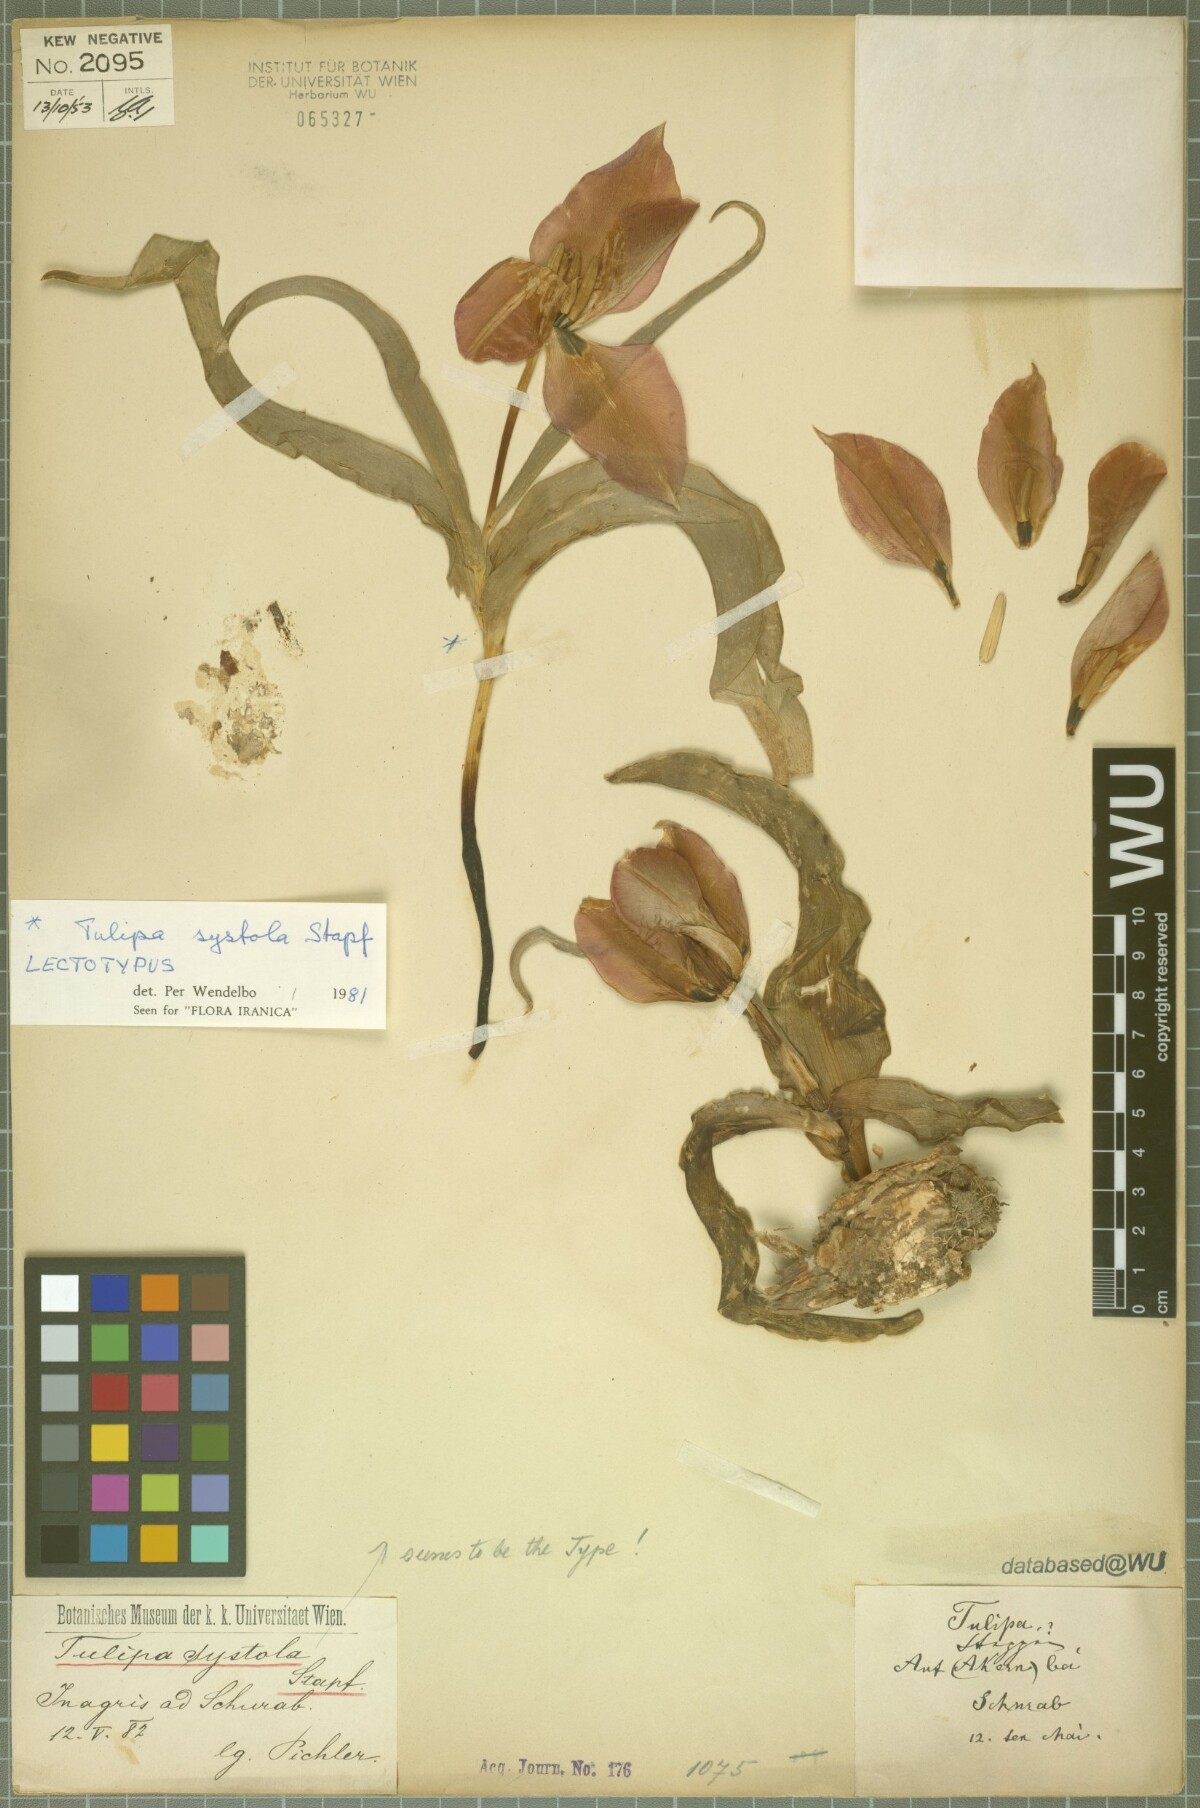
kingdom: Plantae
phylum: Tracheophyta
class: Liliopsida
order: Liliales
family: Liliaceae
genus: Tulipa
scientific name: Tulipa systola
